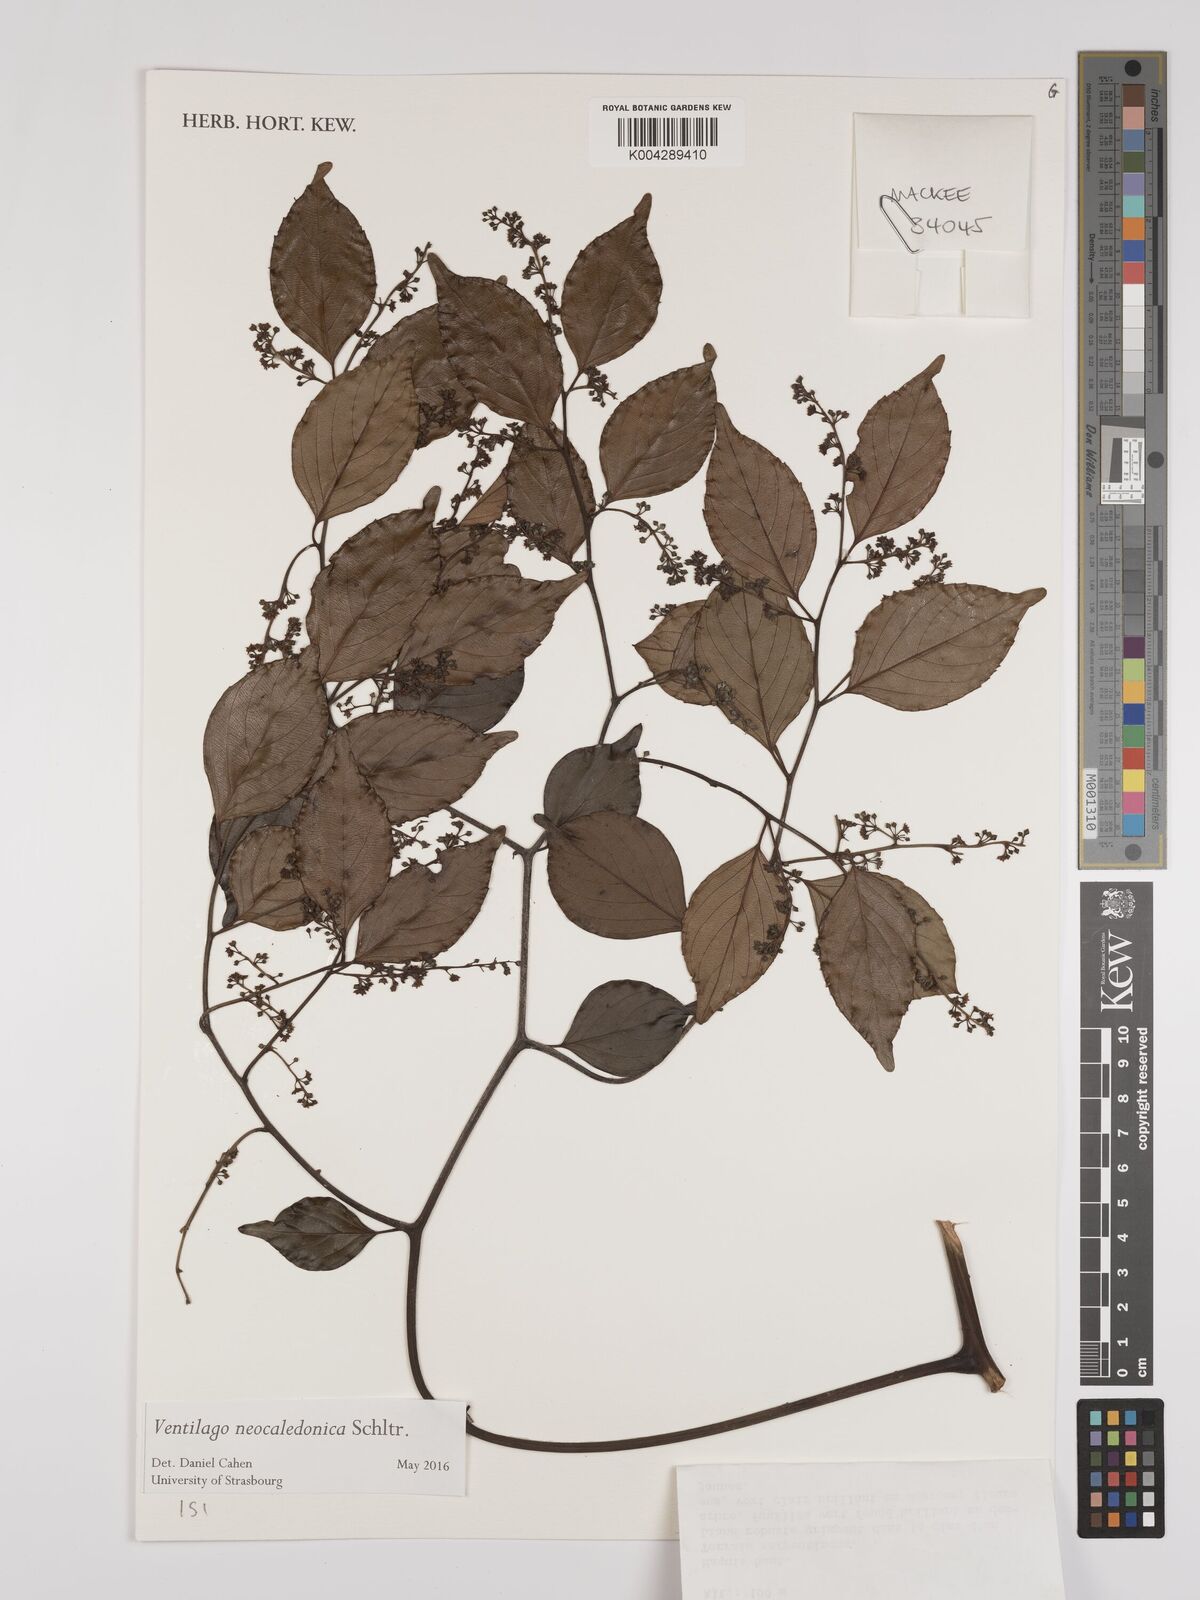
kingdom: Plantae
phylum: Tracheophyta
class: Magnoliopsida
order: Rosales
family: Rhamnaceae
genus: Ventilago
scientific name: Ventilago neocaledonica
